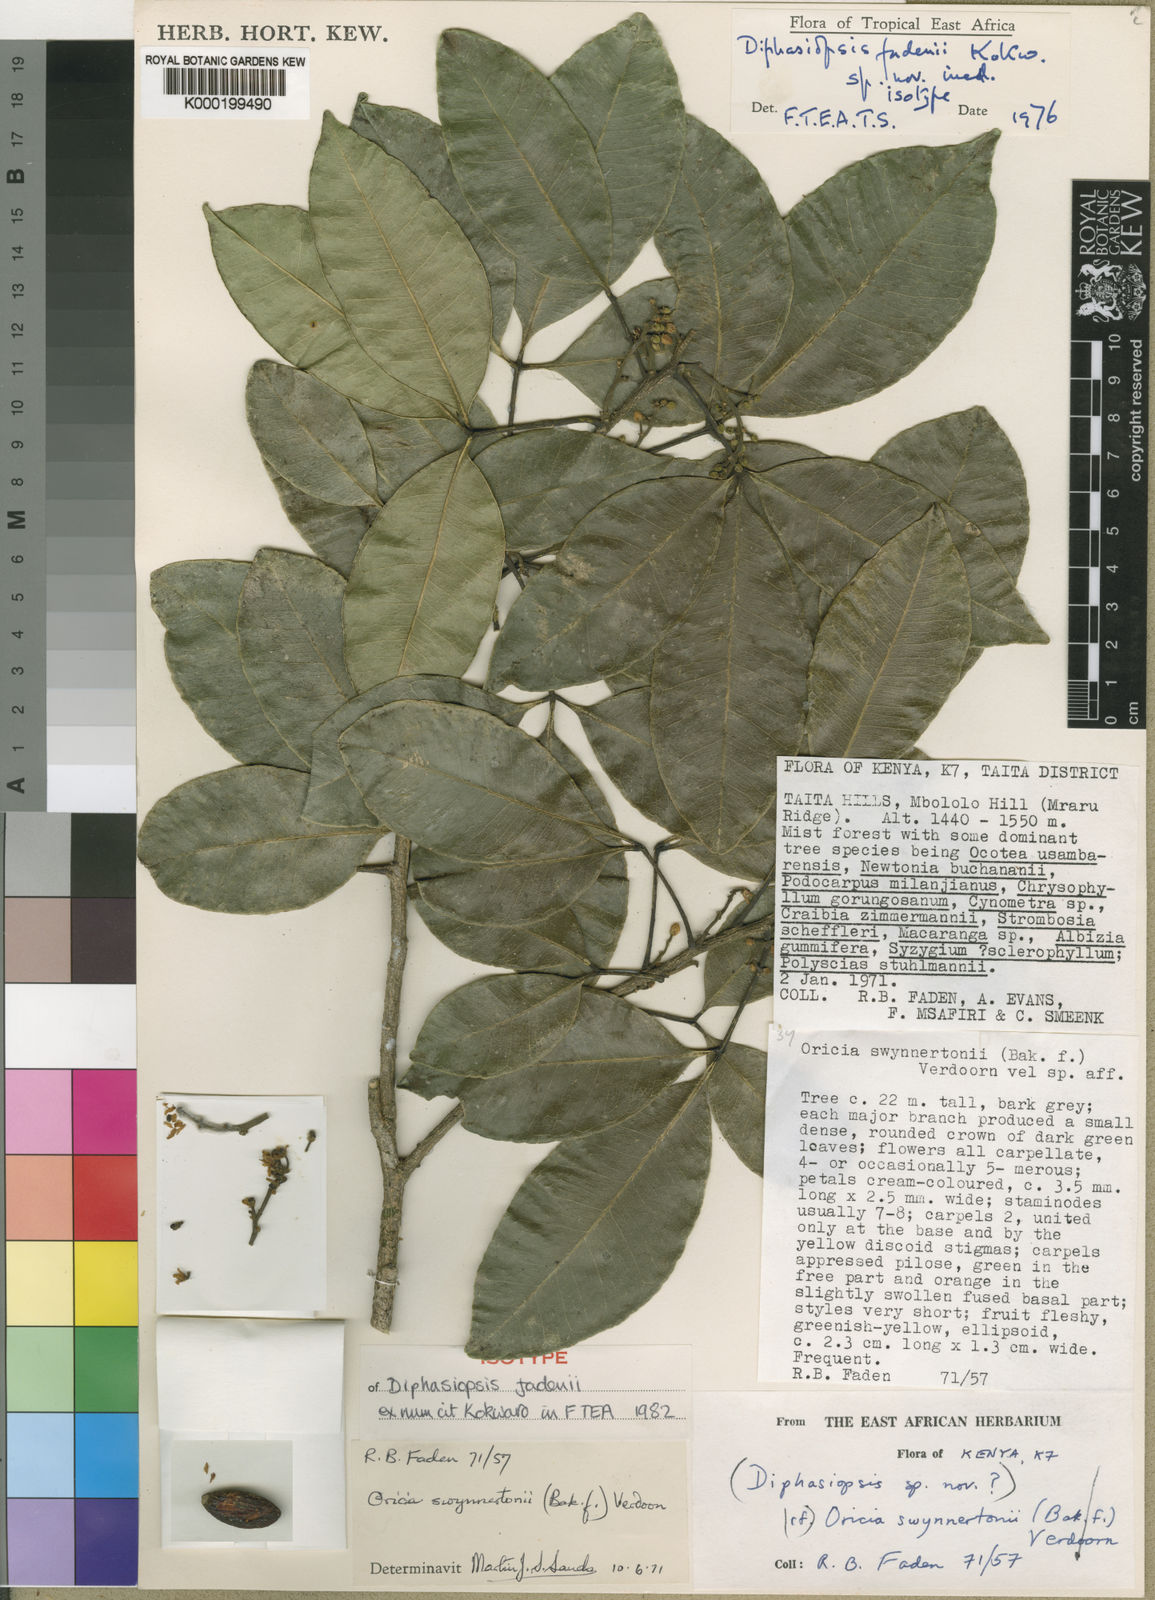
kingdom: Plantae
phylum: Tracheophyta
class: Magnoliopsida
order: Sapindales
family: Rutaceae
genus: Vepris
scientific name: Vepris fadenii
